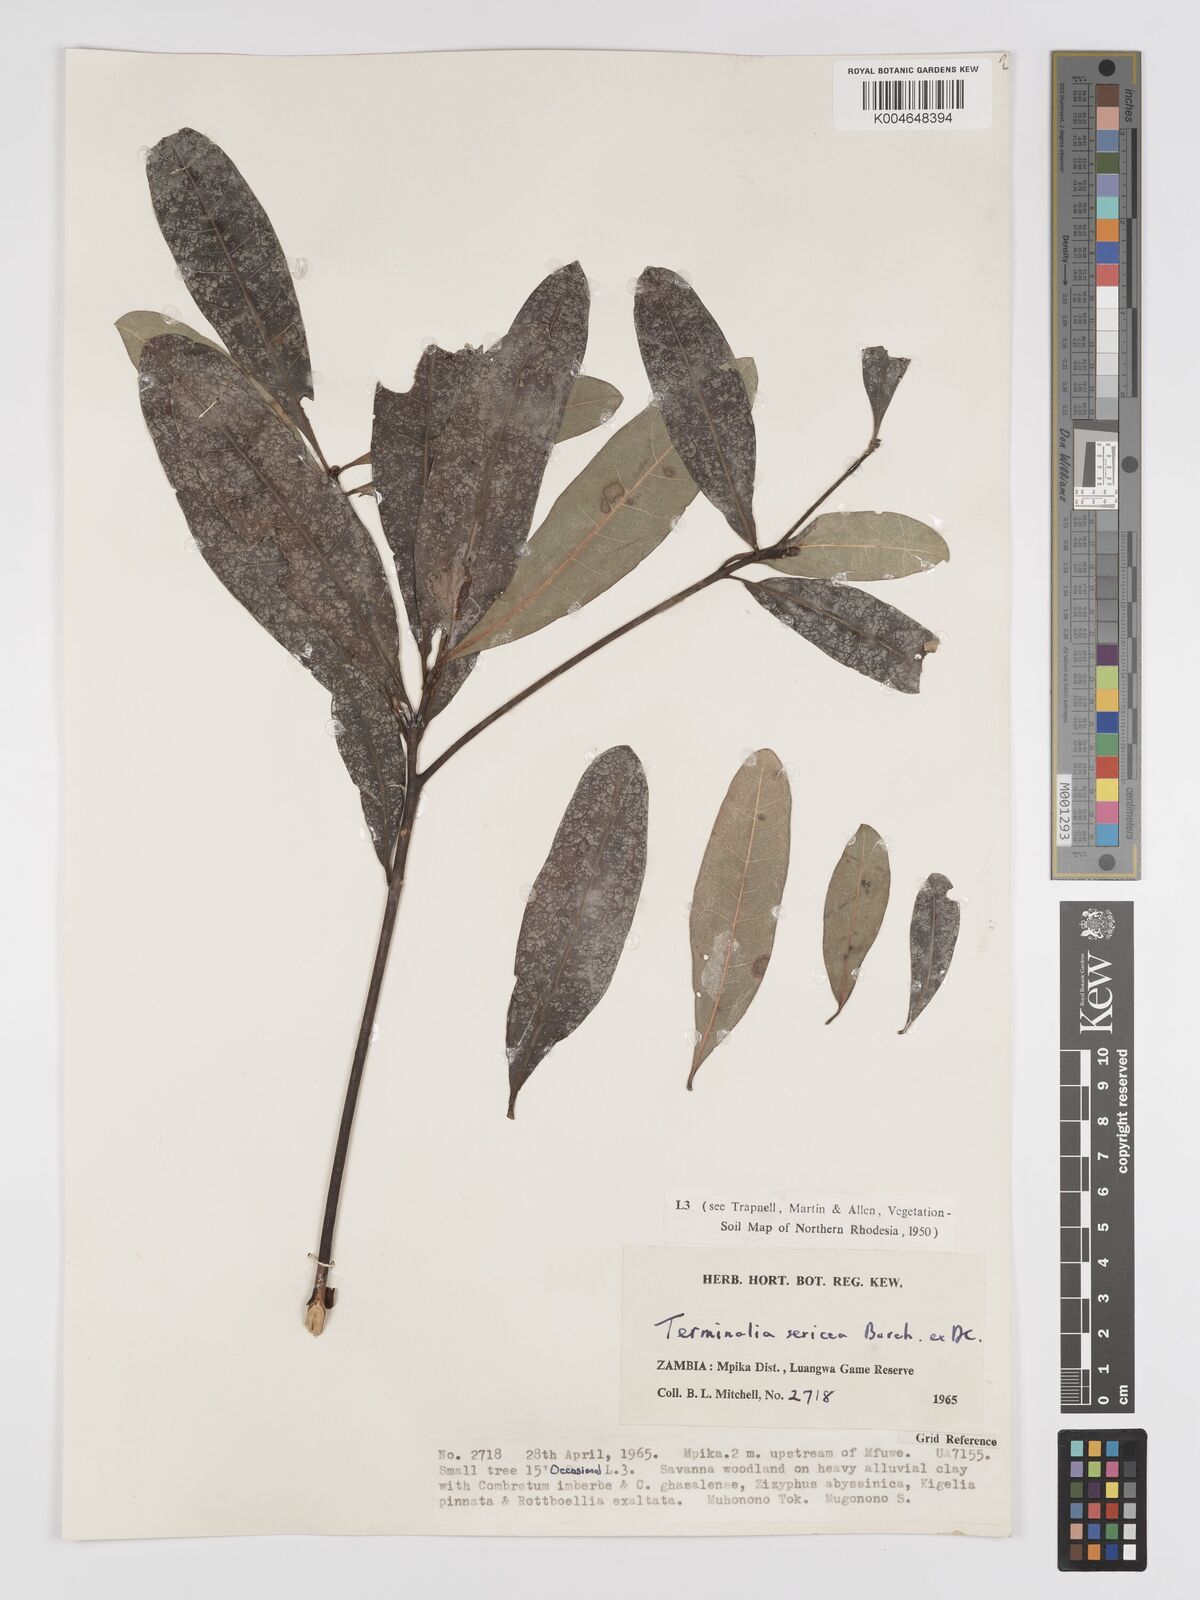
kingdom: Plantae
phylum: Tracheophyta
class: Magnoliopsida
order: Myrtales
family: Combretaceae
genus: Terminalia
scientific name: Terminalia
